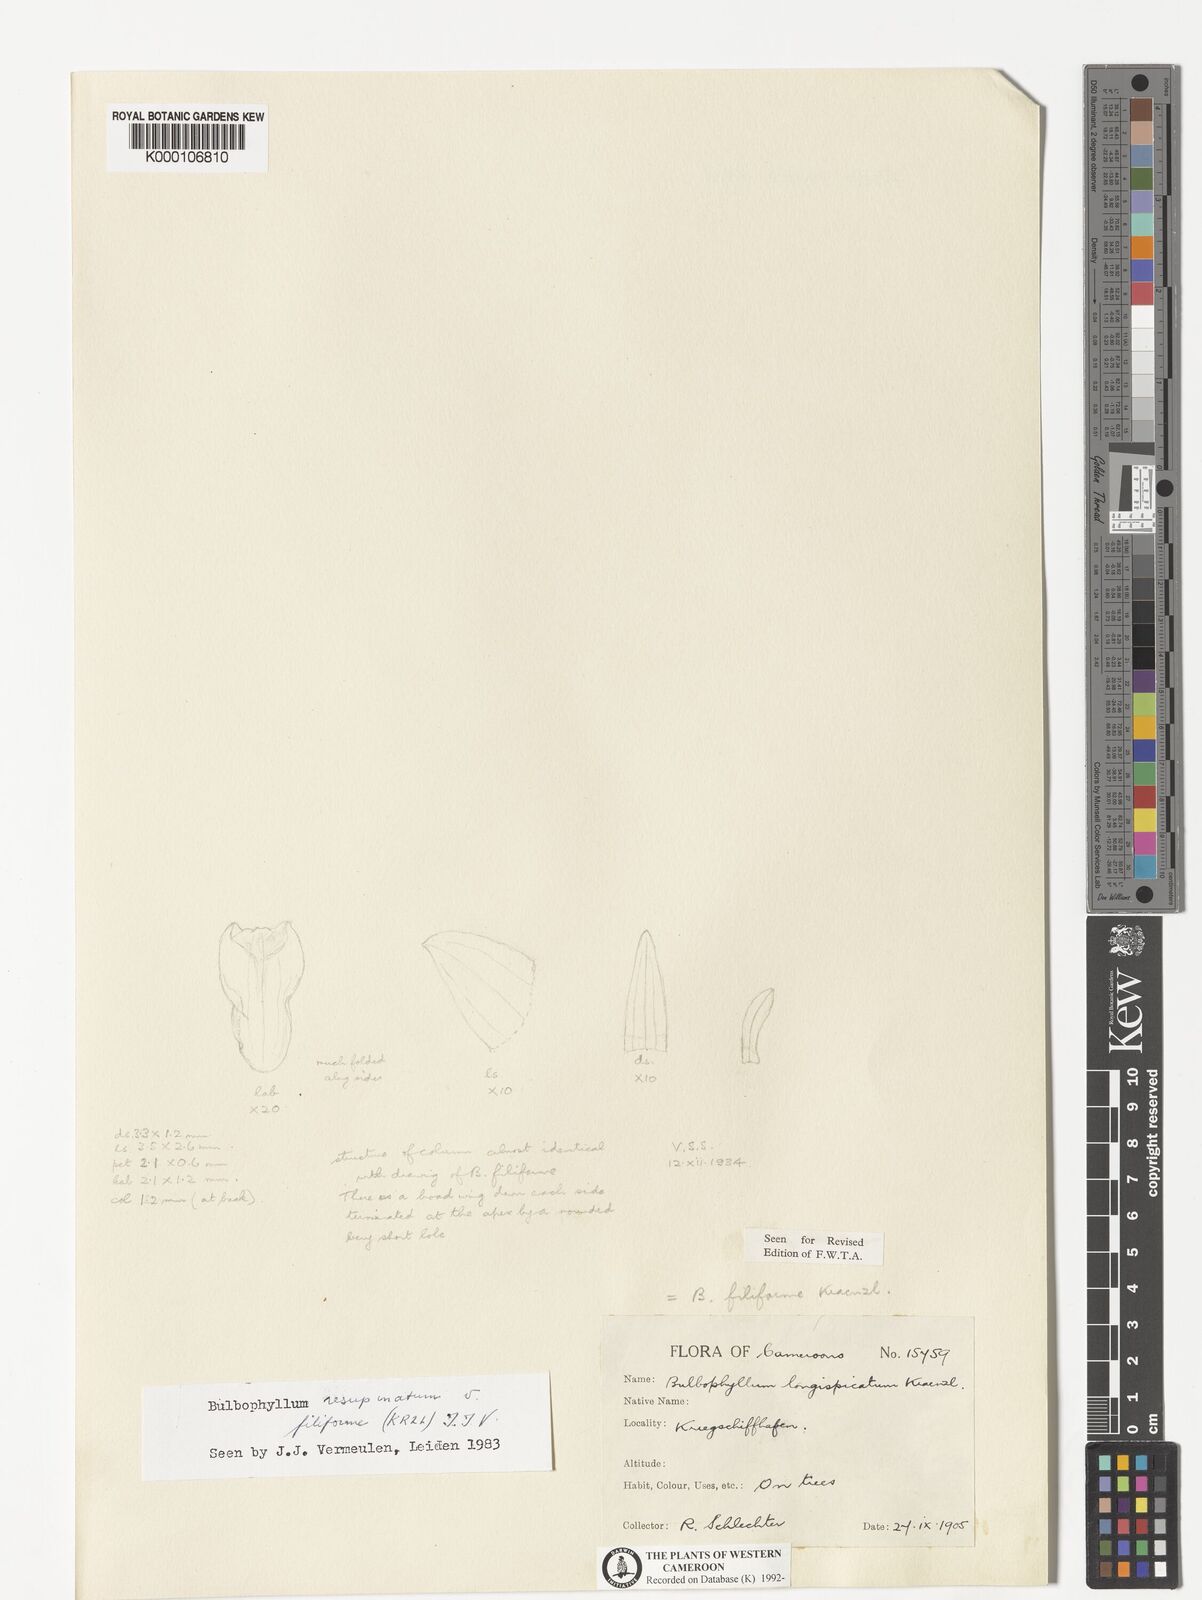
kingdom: Plantae
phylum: Tracheophyta
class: Liliopsida
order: Asparagales
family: Orchidaceae
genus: Bulbophyllum
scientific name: Bulbophyllum resupinatum
